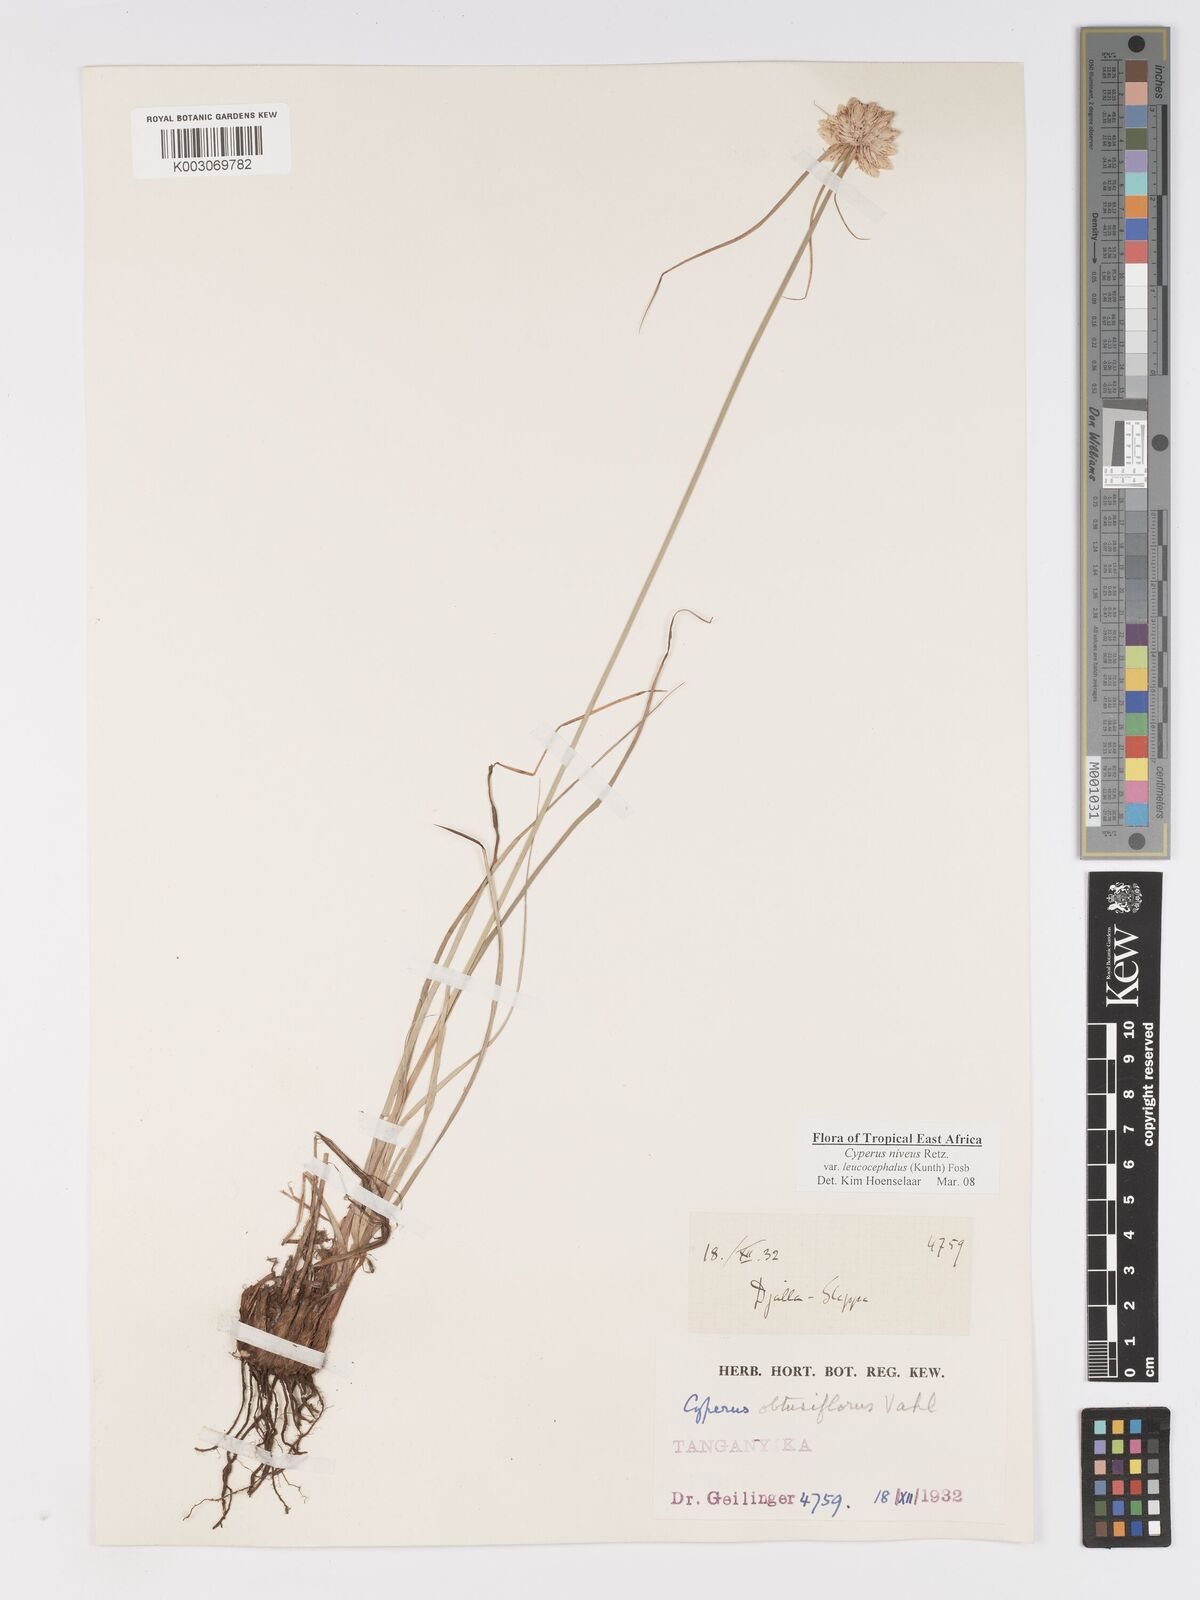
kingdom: Plantae
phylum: Tracheophyta
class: Liliopsida
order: Poales
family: Cyperaceae
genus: Cyperus
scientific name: Cyperus niveus
